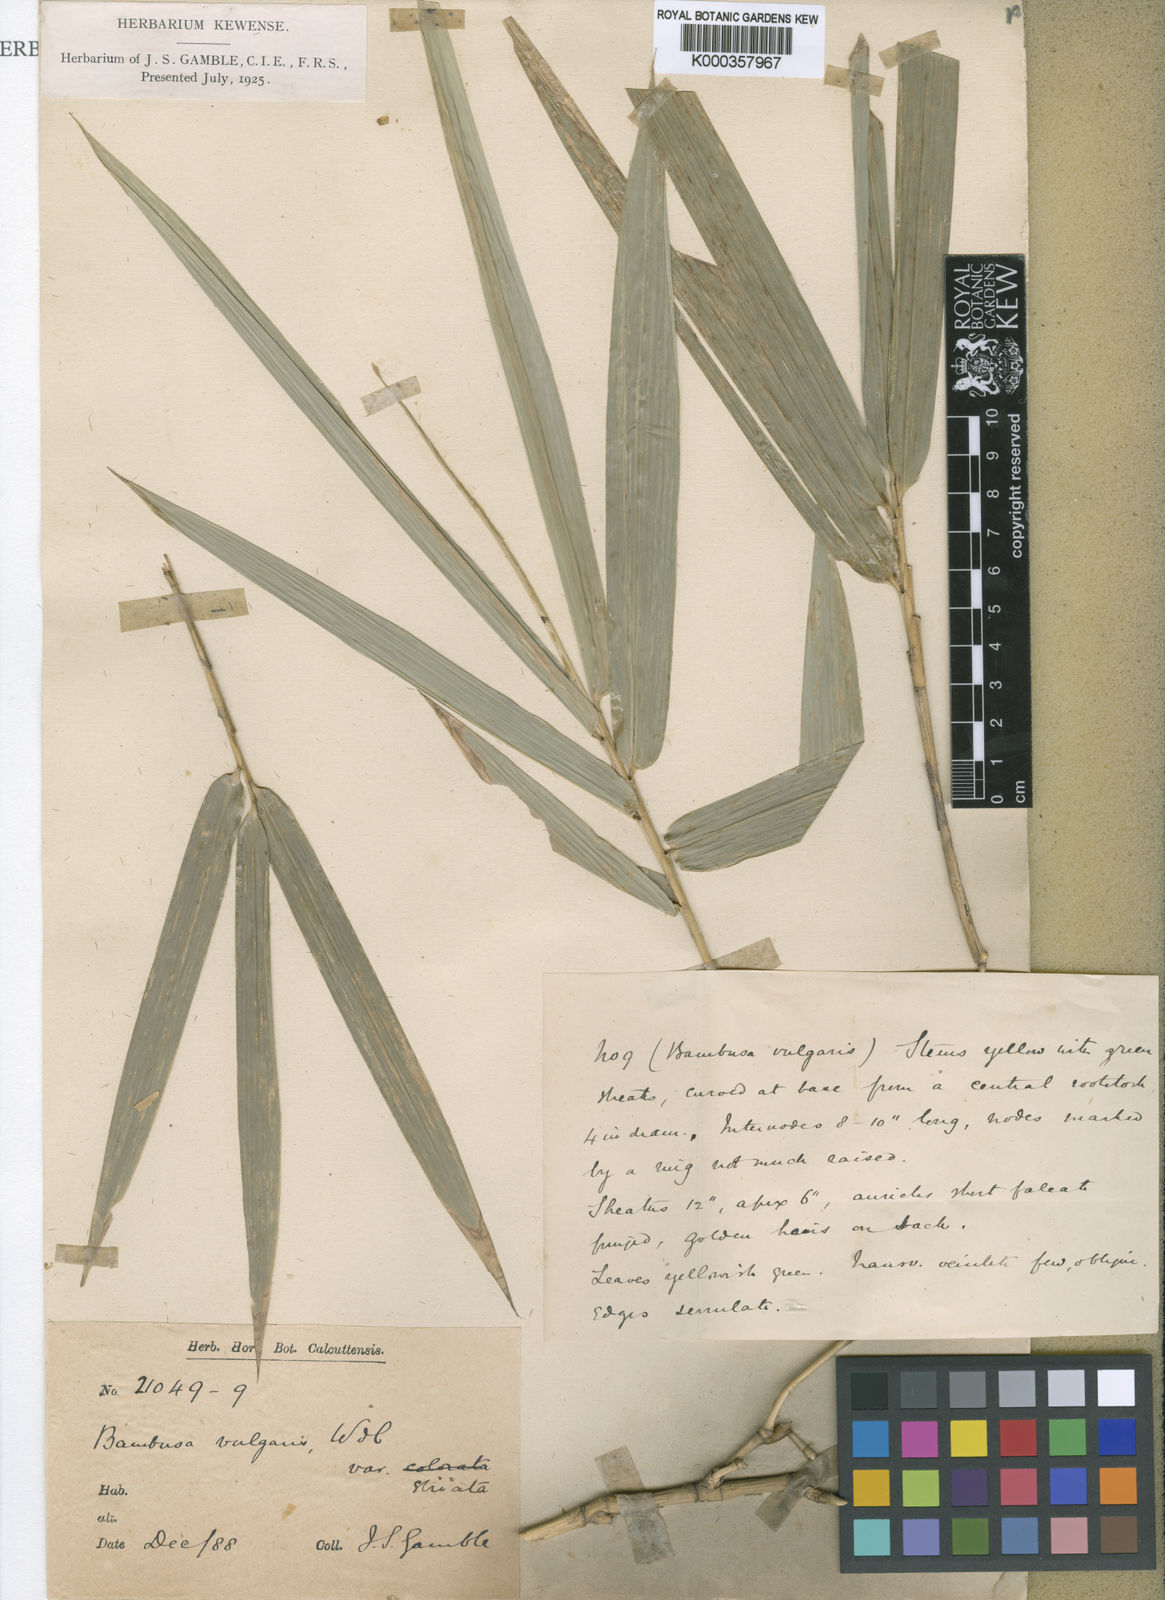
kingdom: Plantae
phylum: Tracheophyta
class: Liliopsida
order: Poales
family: Poaceae
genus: Bambusa
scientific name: Bambusa
